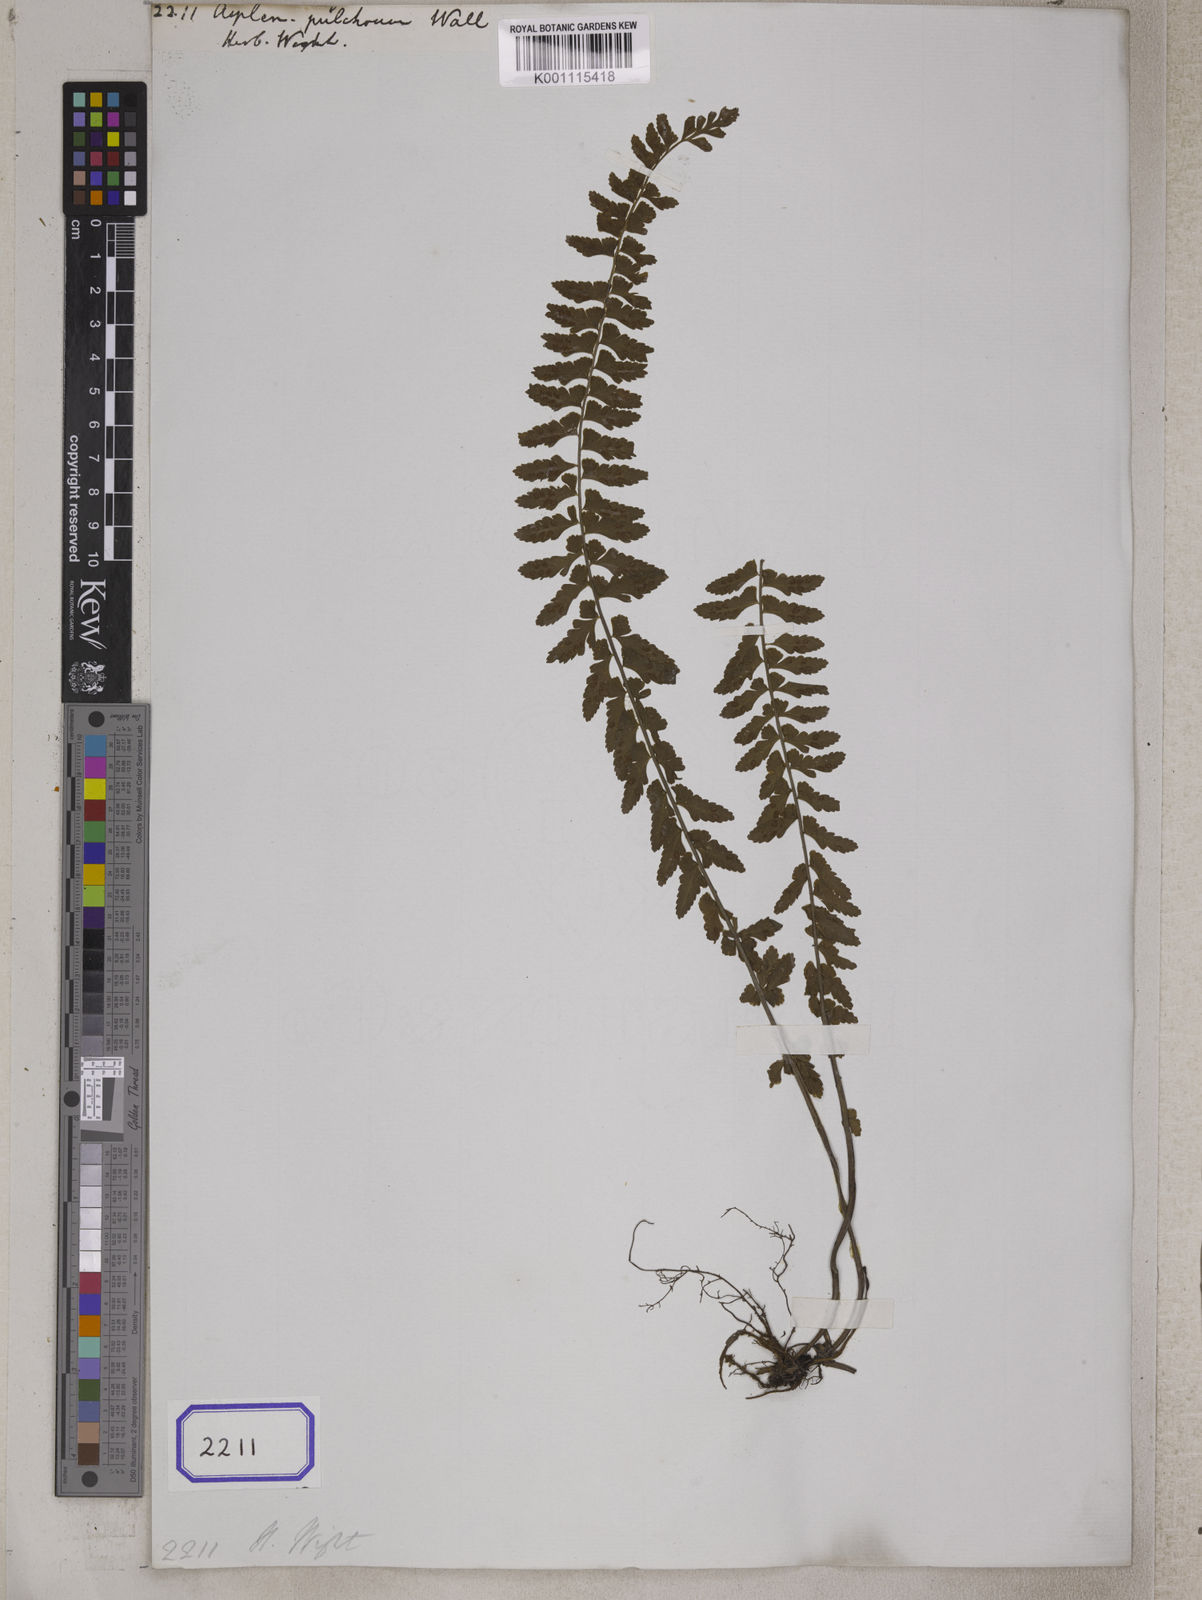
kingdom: Plantae
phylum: Tracheophyta
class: Polypodiopsida
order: Polypodiales
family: Aspleniaceae
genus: Asplenium
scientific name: Asplenium
